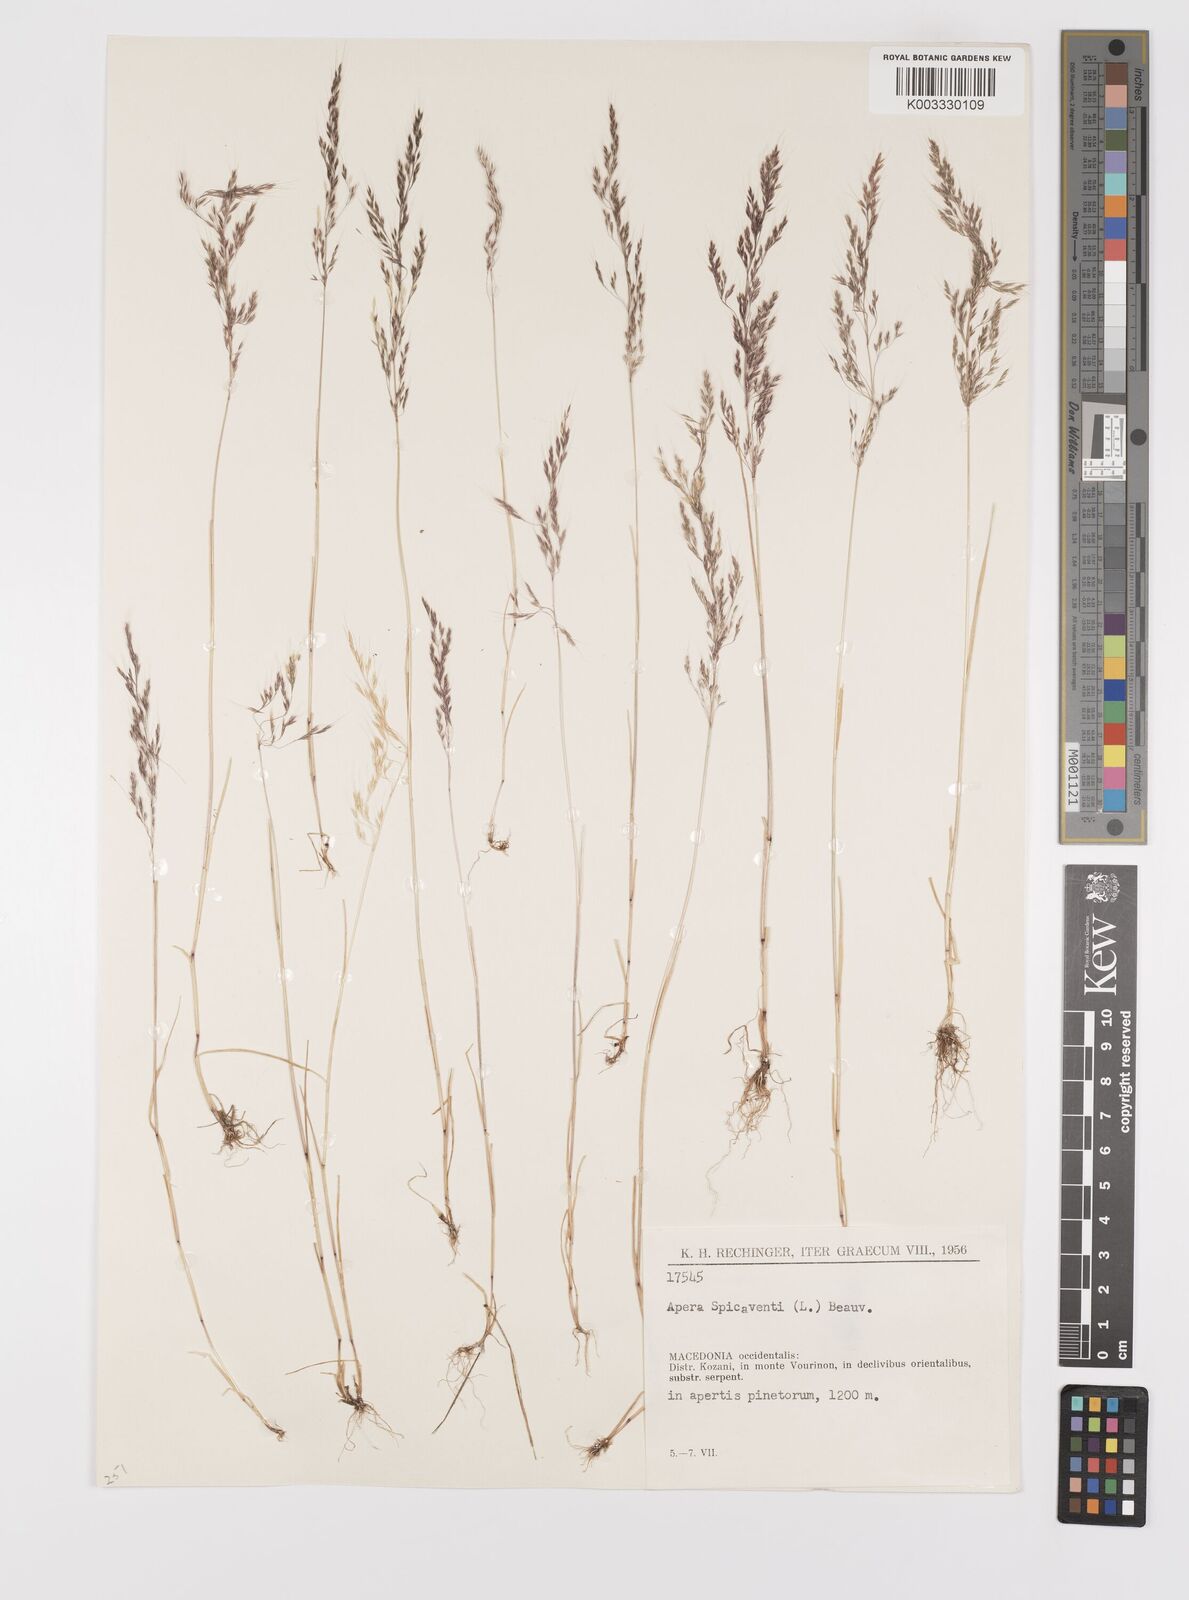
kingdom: Plantae
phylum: Tracheophyta
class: Liliopsida
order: Poales
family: Poaceae
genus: Apera
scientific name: Apera spica-venti
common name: Loose silky-bent
